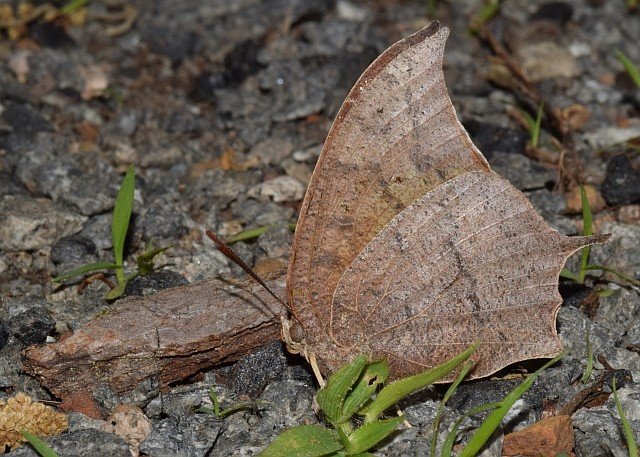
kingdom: Animalia
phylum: Arthropoda
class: Insecta
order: Lepidoptera
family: Nymphalidae
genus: Anaea
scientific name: Anaea andria
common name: Goatweed Leafwing
